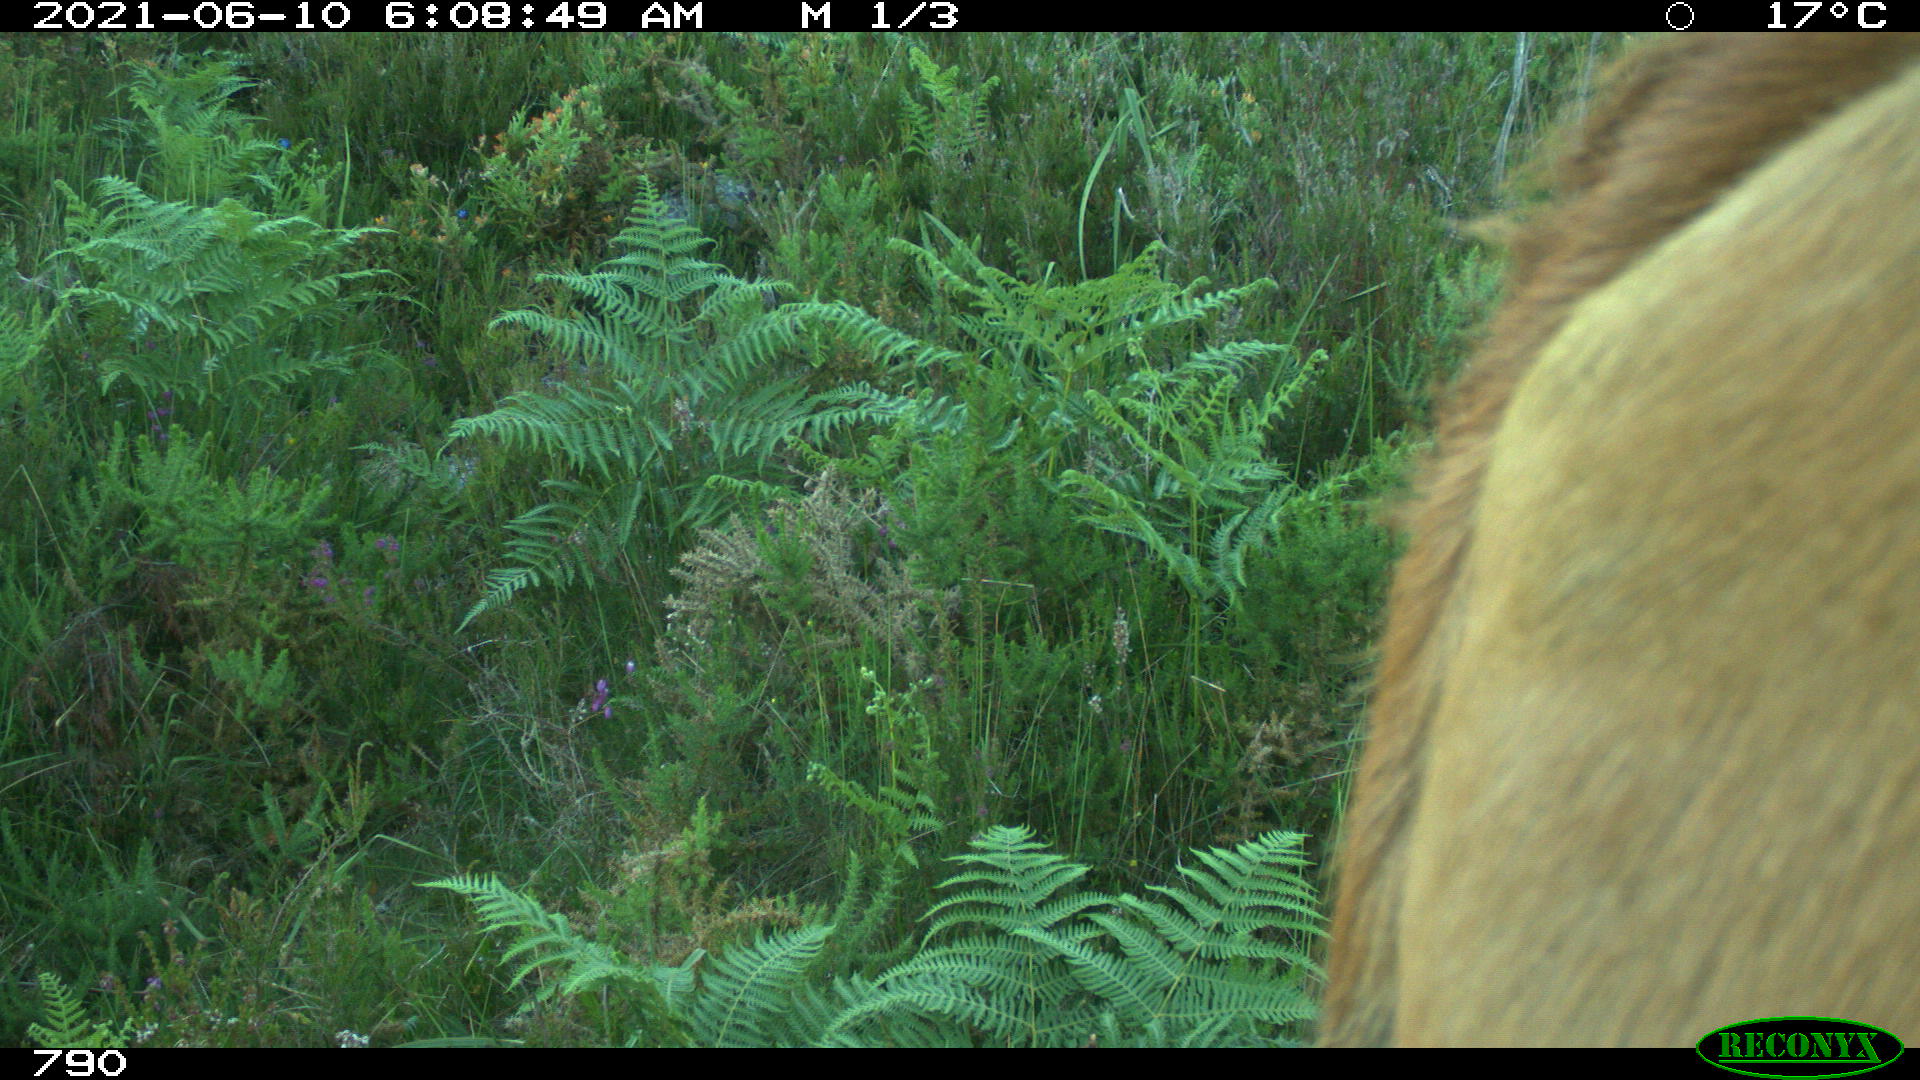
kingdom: Animalia
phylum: Chordata
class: Mammalia
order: Artiodactyla
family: Bovidae
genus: Bos
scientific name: Bos taurus
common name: Domesticated cattle
